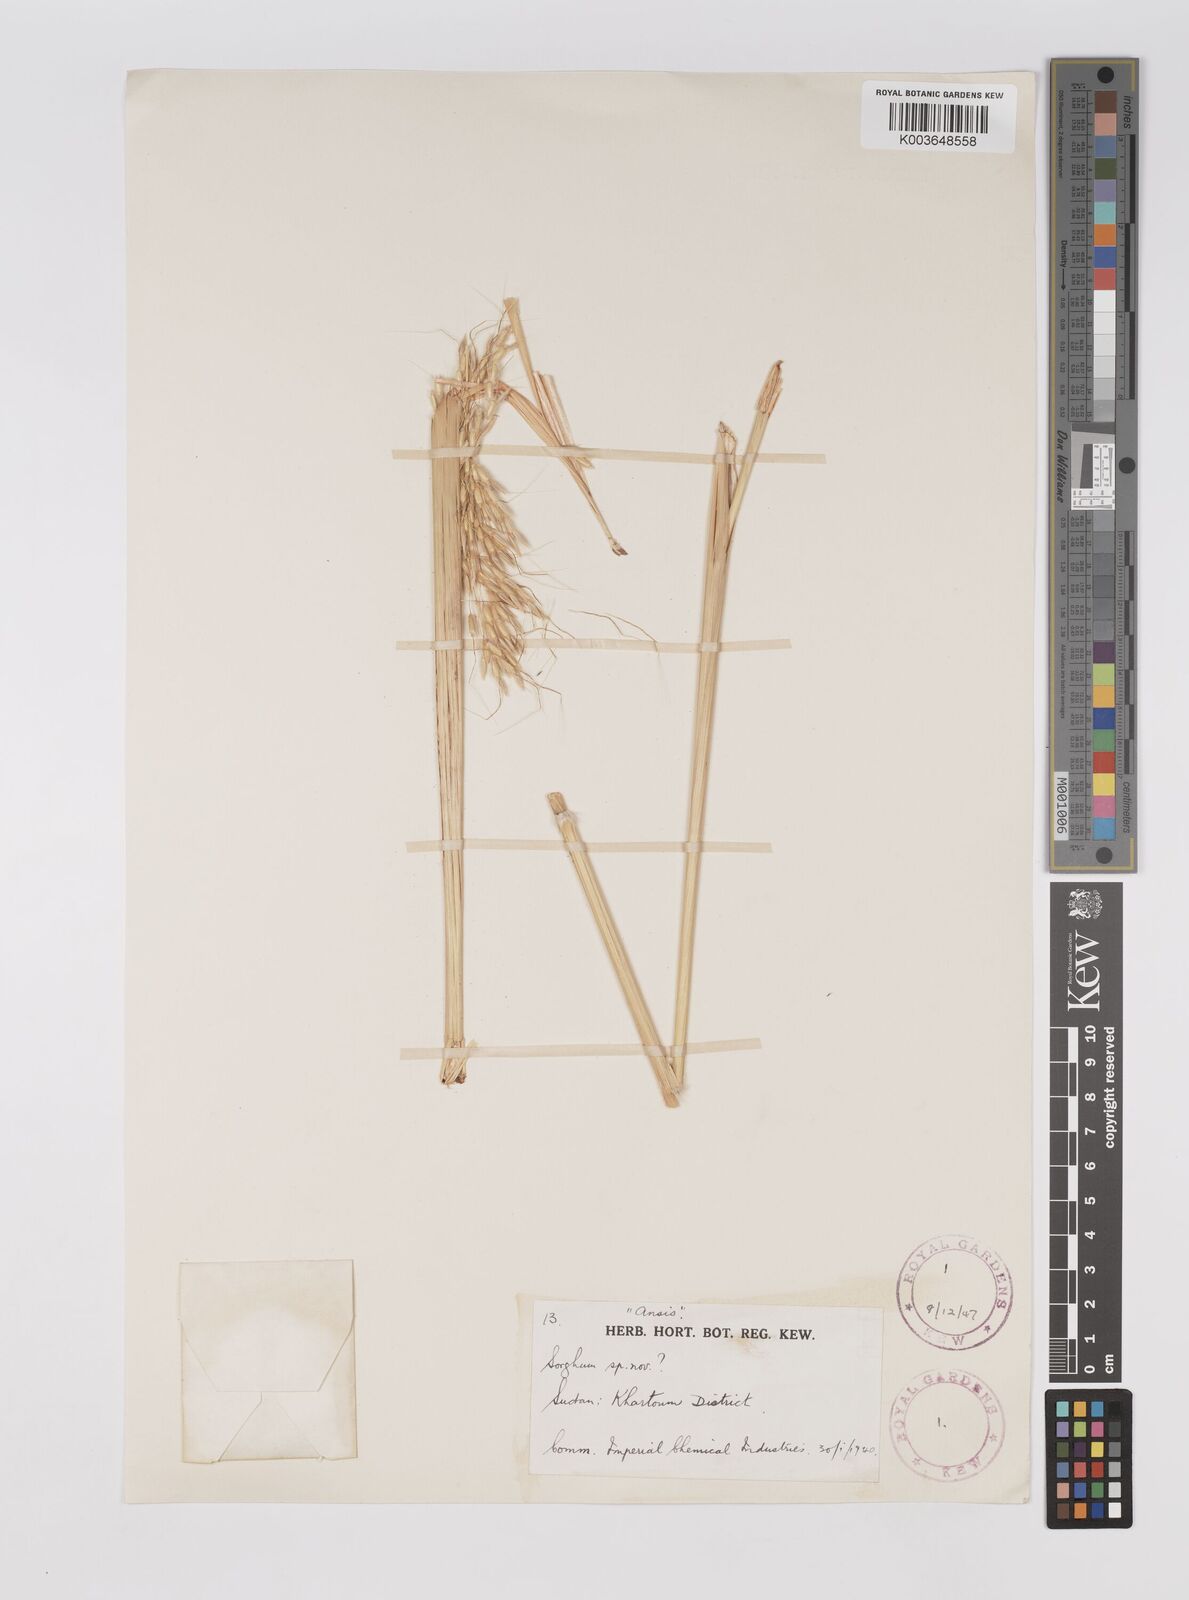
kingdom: Plantae
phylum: Tracheophyta
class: Liliopsida
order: Poales
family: Poaceae
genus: Sarga
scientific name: Sarga purpureosericea
